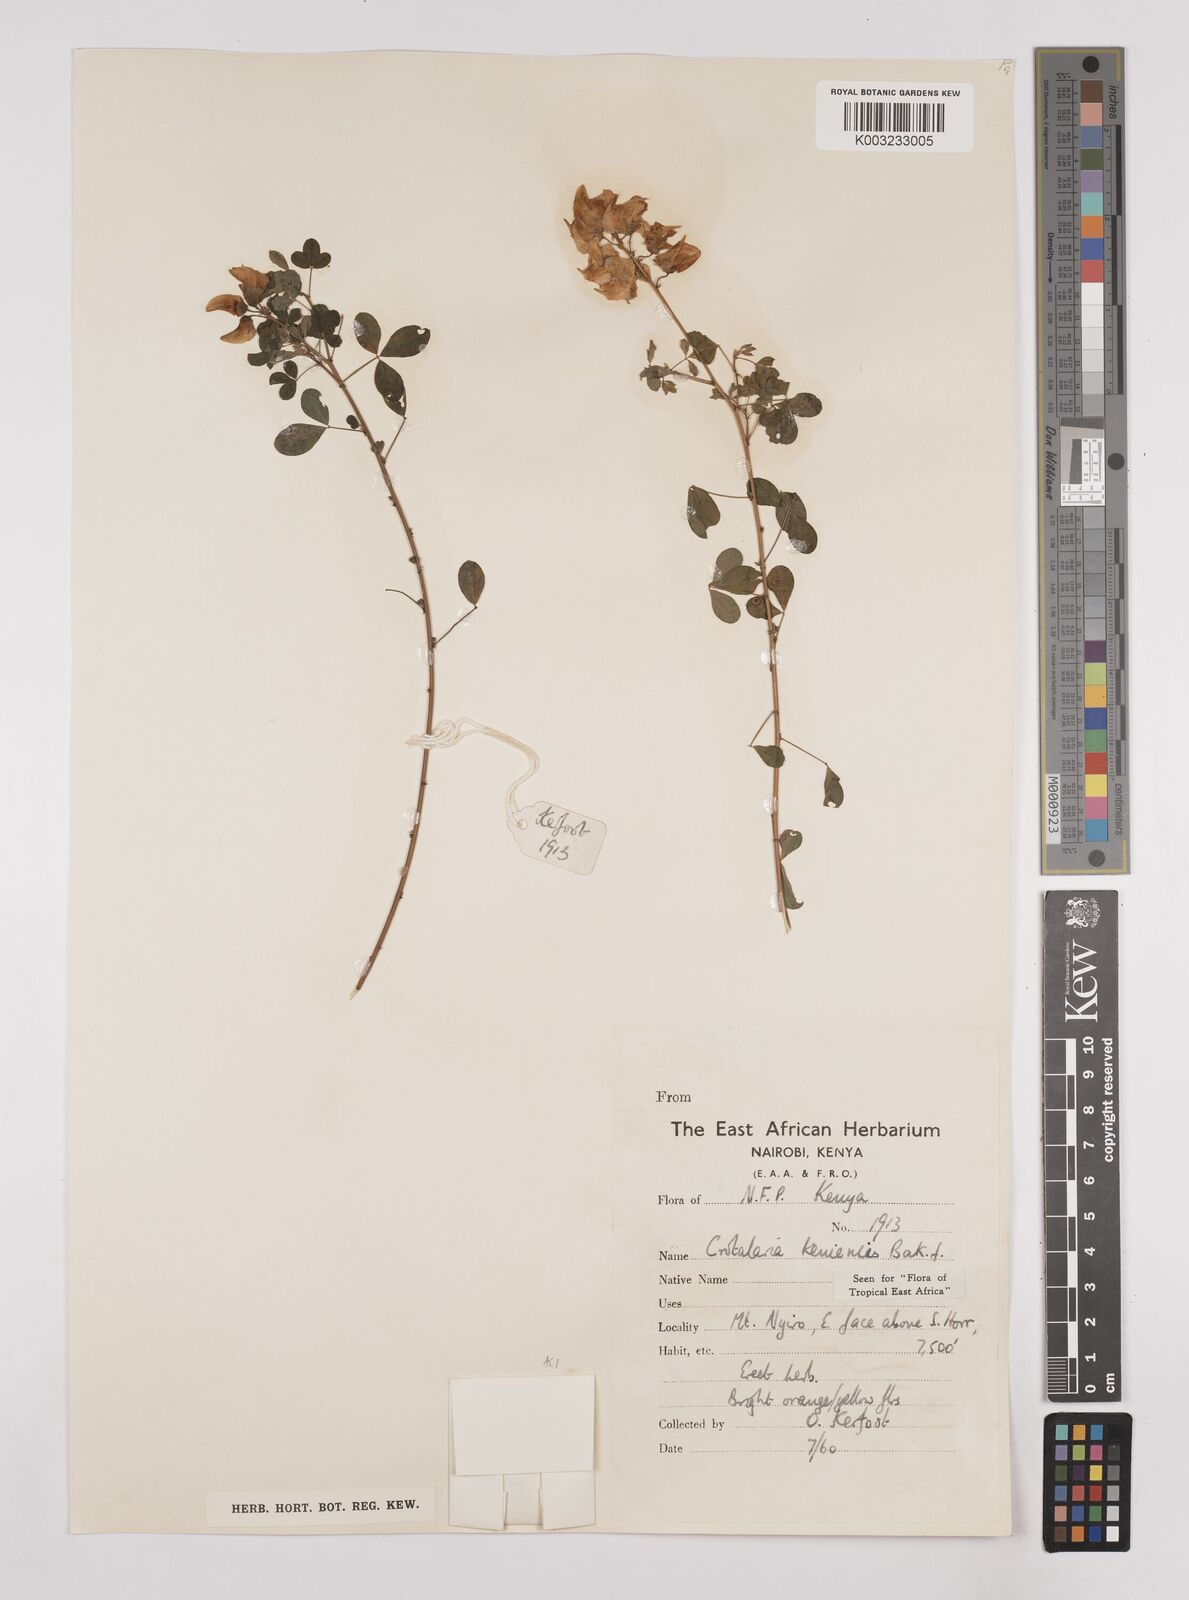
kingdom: Plantae
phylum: Tracheophyta
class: Magnoliopsida
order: Fabales
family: Fabaceae
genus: Crotalaria
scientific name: Crotalaria keniensis
